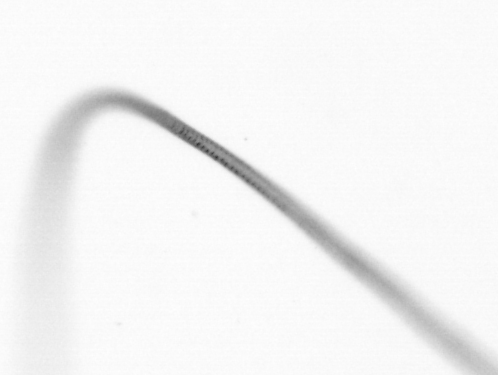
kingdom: Chromista
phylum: Ochrophyta
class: Bacillariophyceae
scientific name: Bacillariophyceae
